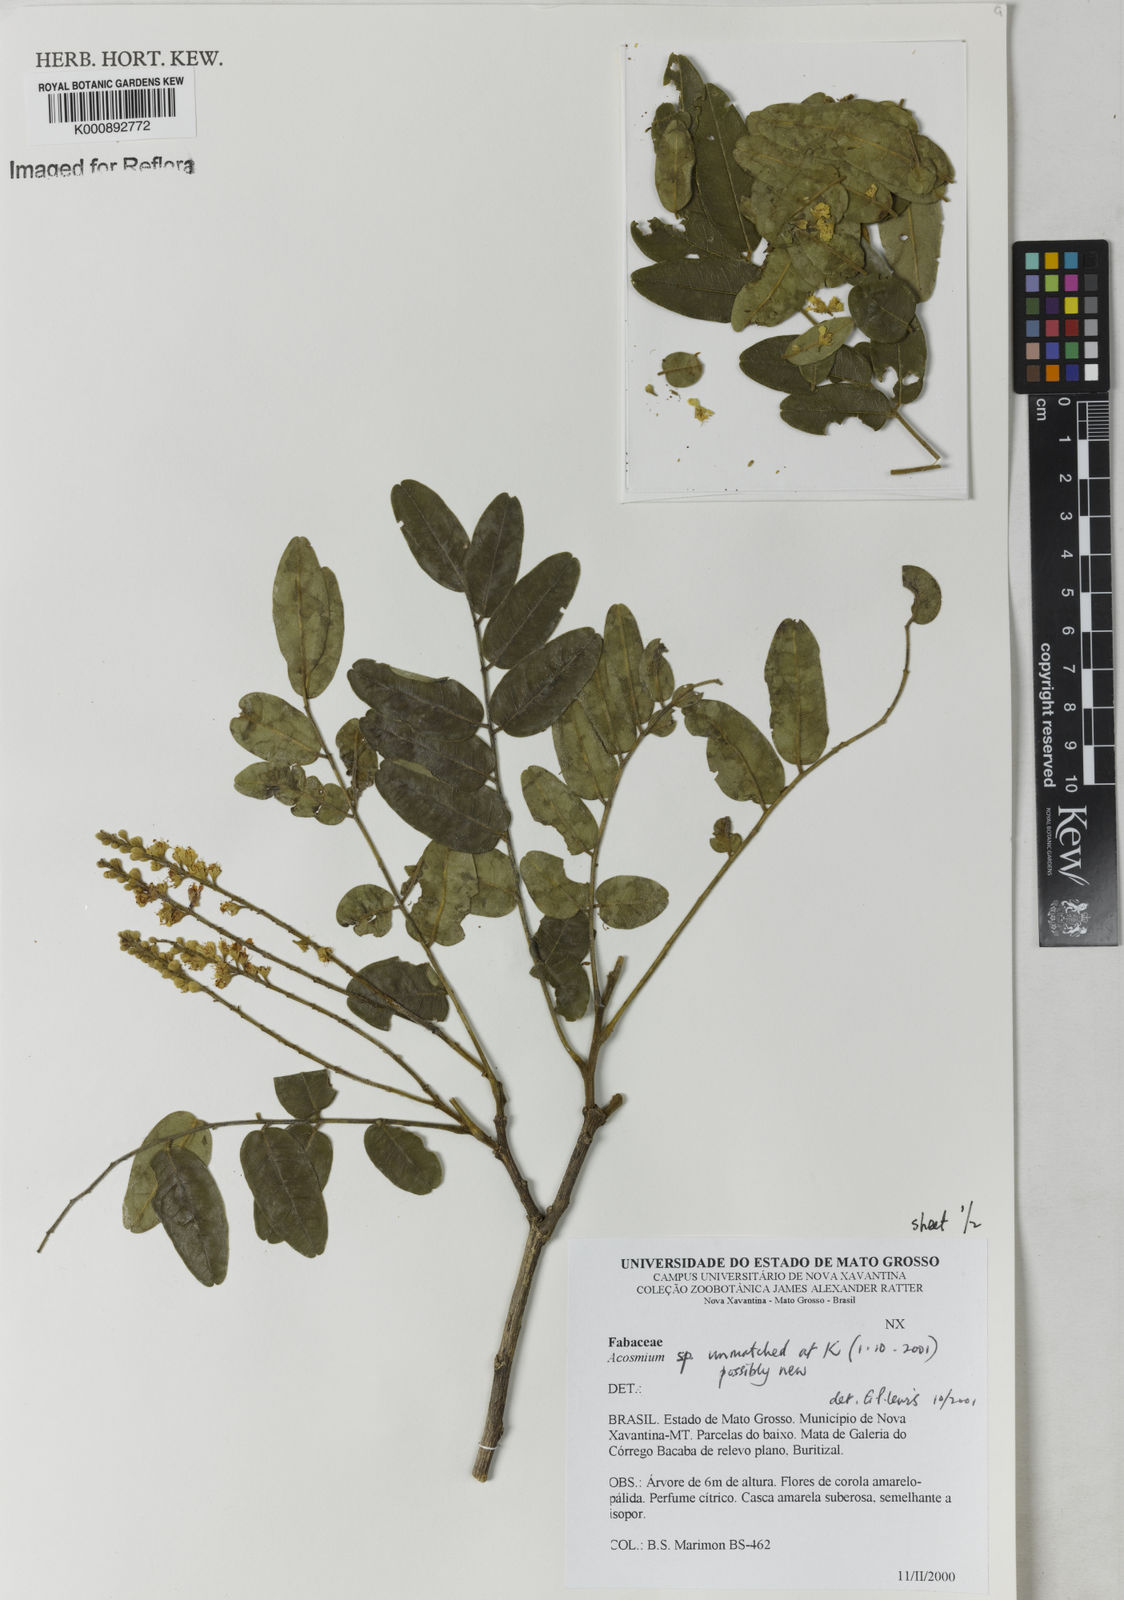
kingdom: Plantae
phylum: Tracheophyta
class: Magnoliopsida
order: Fabales
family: Fabaceae
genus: Leptolobium
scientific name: Leptolobium
